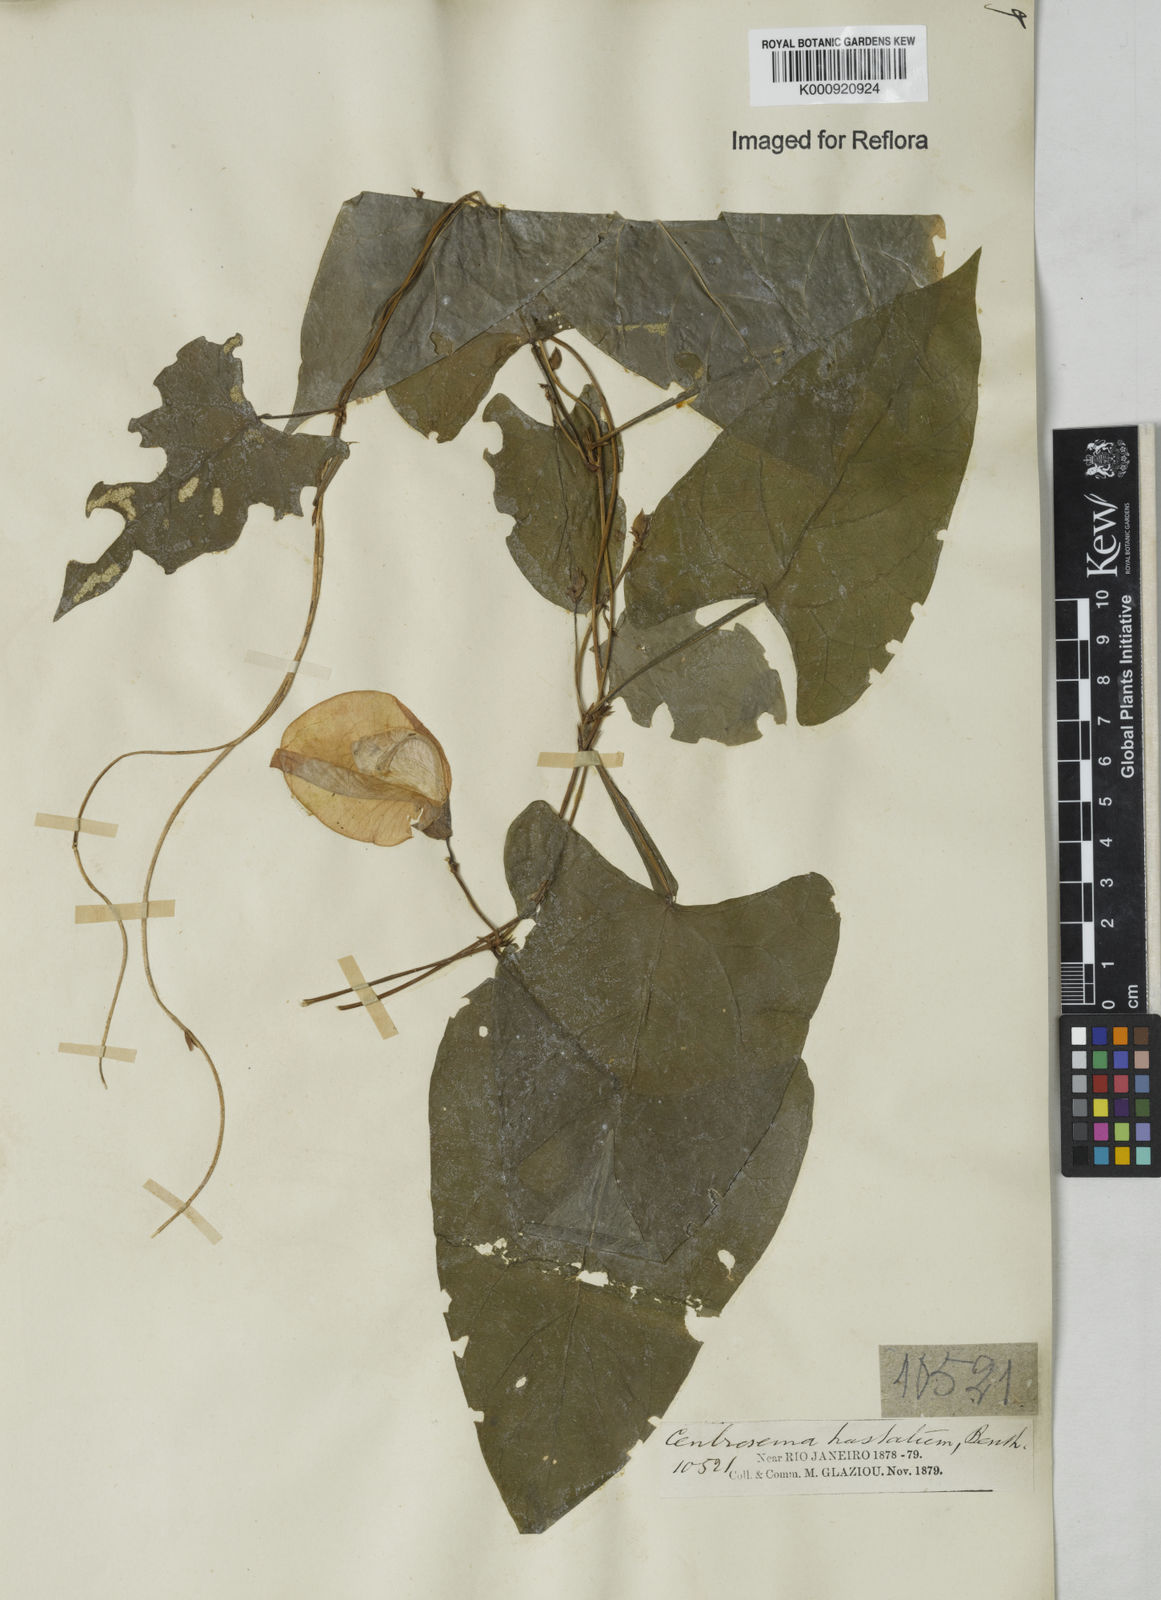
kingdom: Plantae
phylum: Tracheophyta
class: Magnoliopsida
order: Fabales
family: Fabaceae
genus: Centrosema
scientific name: Centrosema sagittatum
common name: Arrowleaf butterfly pea
